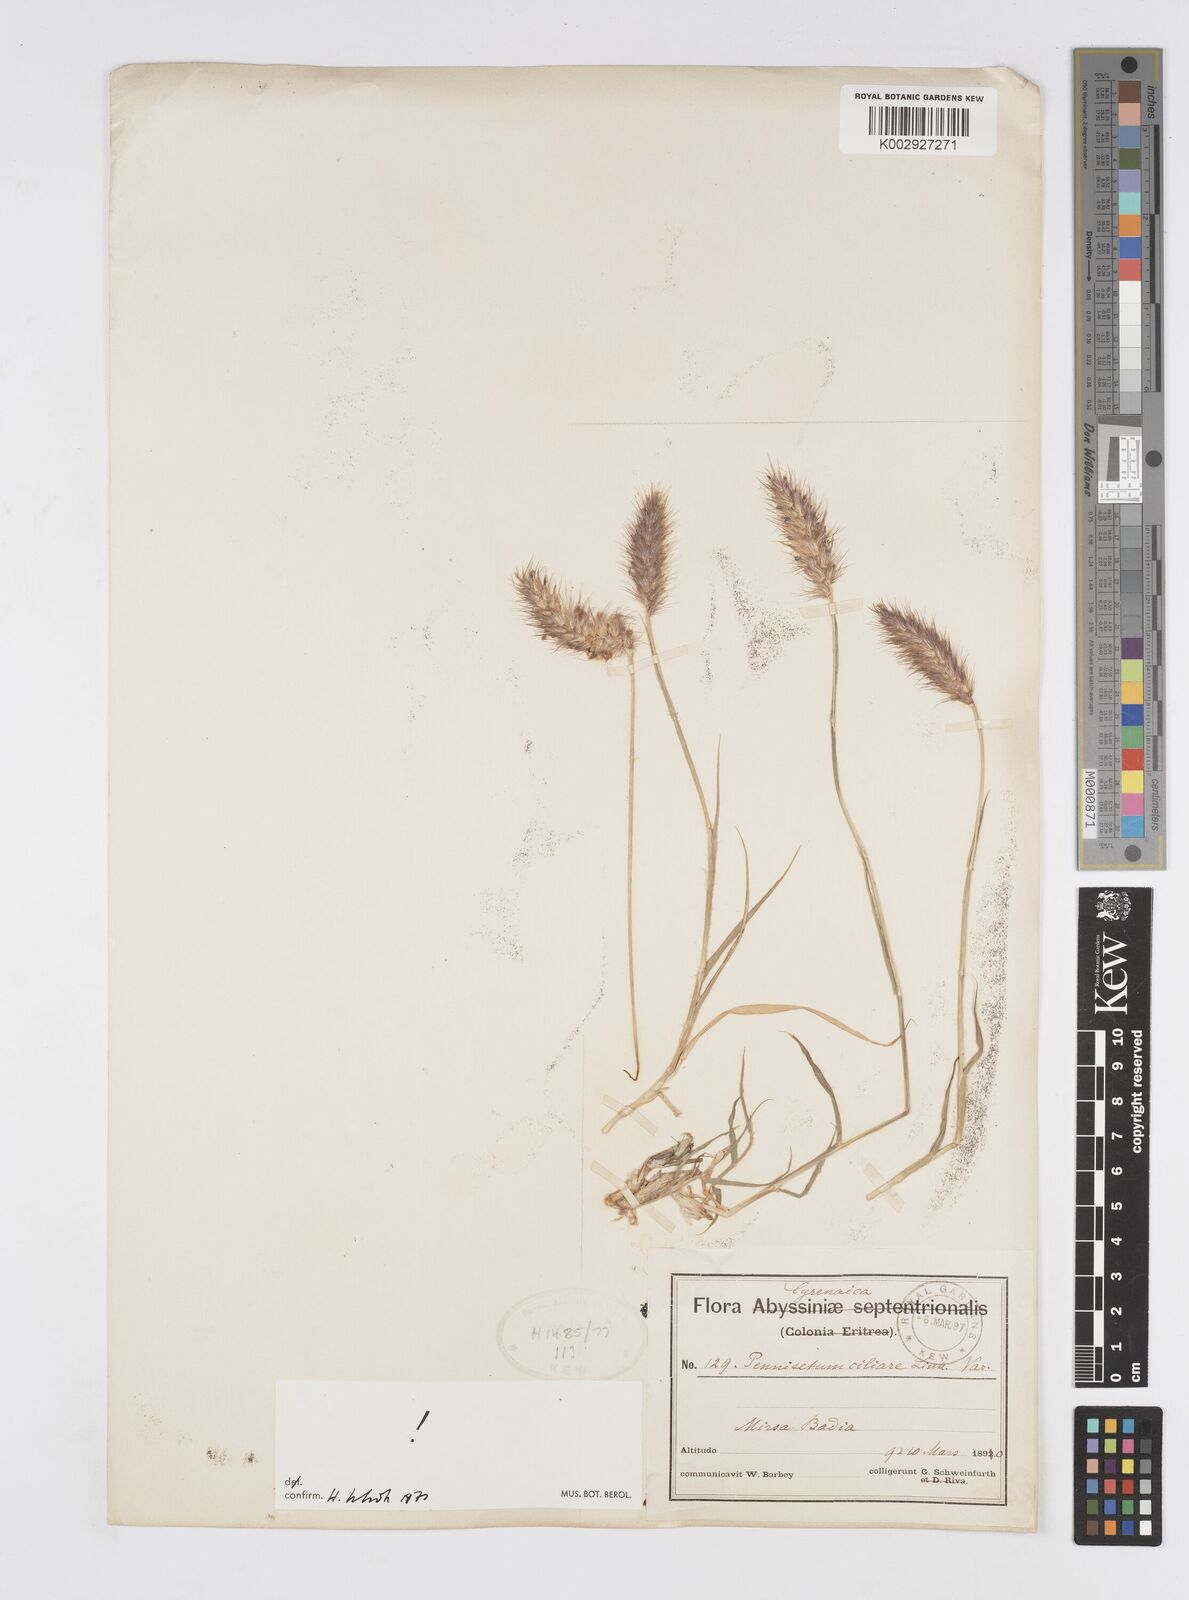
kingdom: Plantae
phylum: Tracheophyta
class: Liliopsida
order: Poales
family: Poaceae
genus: Cenchrus
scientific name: Cenchrus
